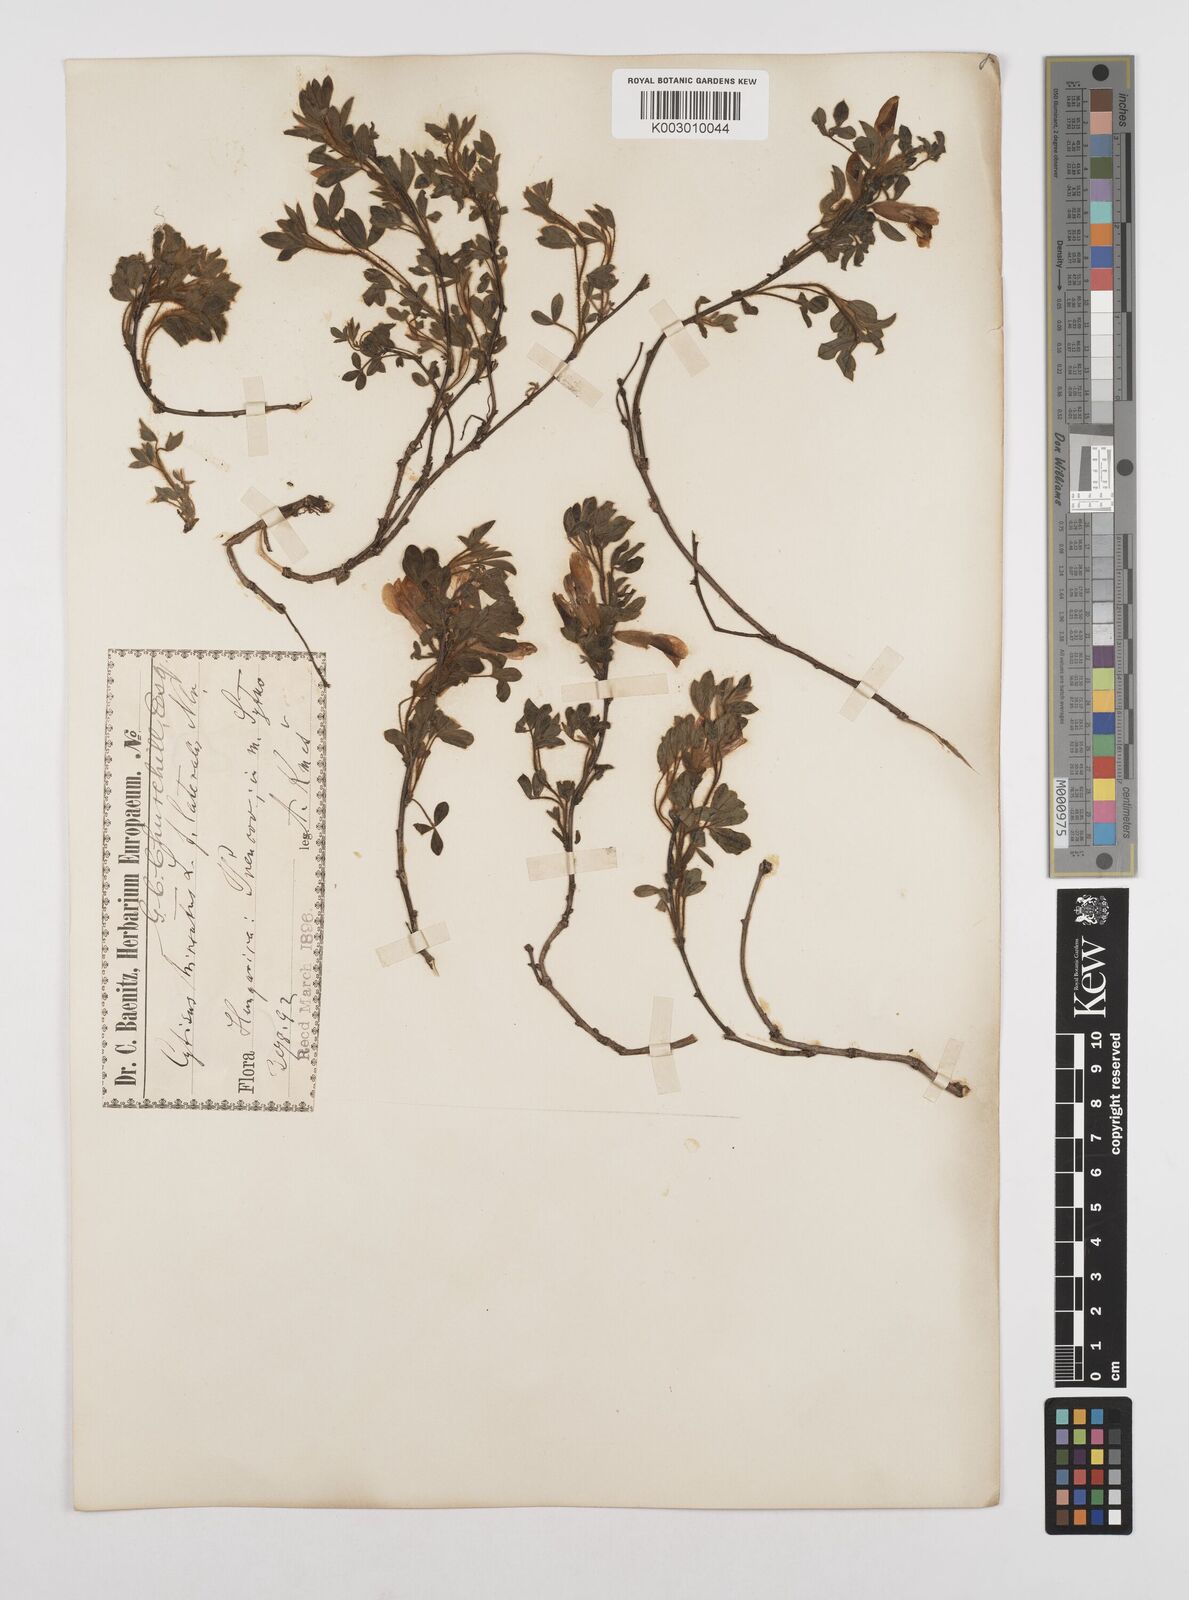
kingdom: Plantae
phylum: Tracheophyta
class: Magnoliopsida
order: Fabales
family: Fabaceae
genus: Chamaecytisus
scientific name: Chamaecytisus hirsutus
